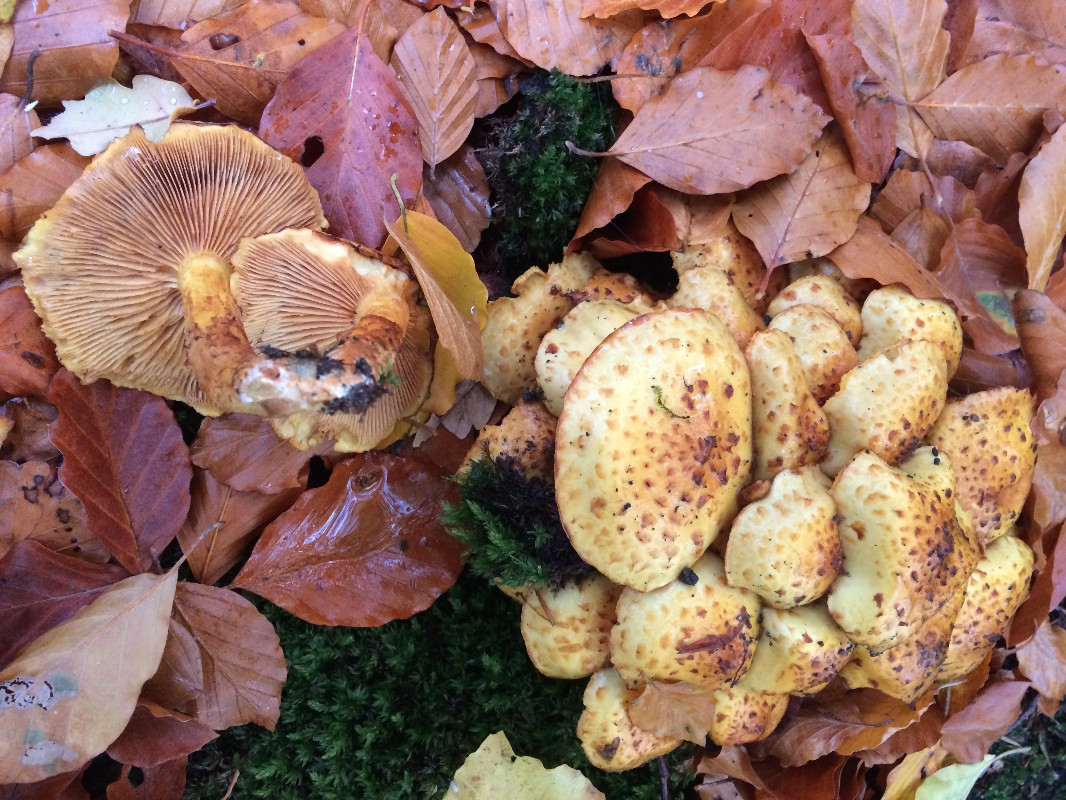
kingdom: Fungi
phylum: Basidiomycota
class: Agaricomycetes
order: Agaricales
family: Strophariaceae
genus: Pholiota
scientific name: Pholiota jahnii
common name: slimet skælhat
